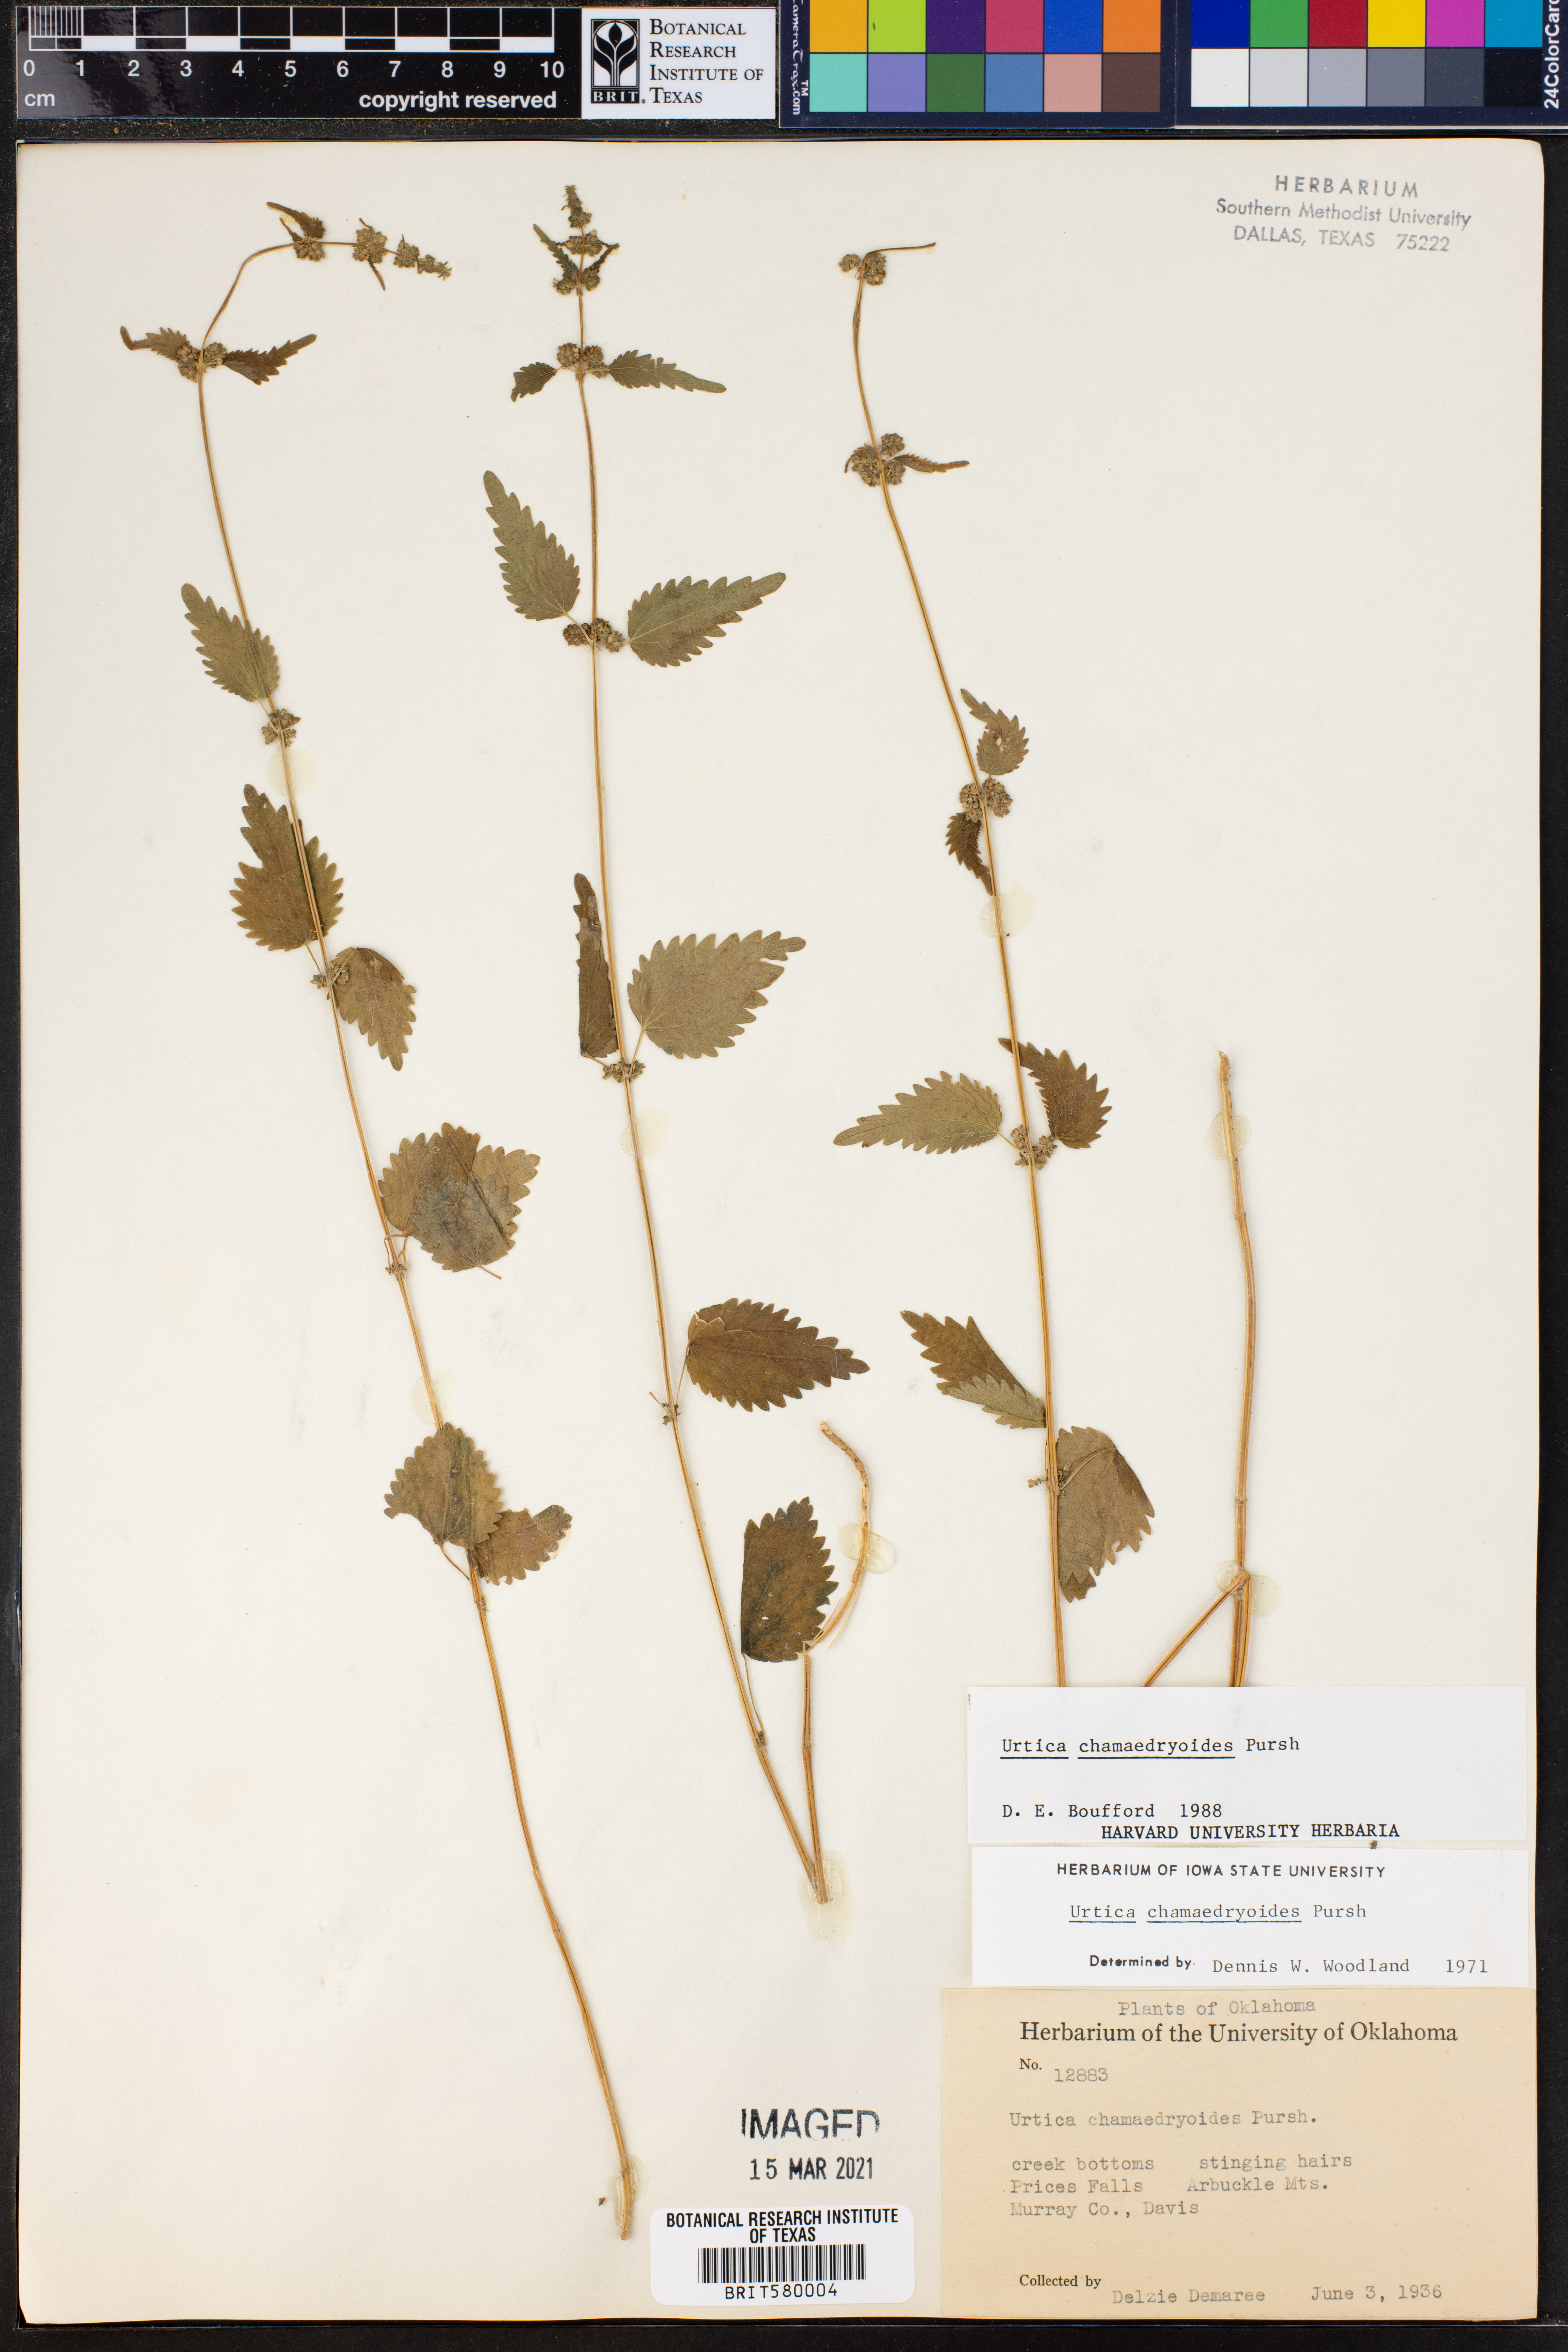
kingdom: Plantae
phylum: Tracheophyta
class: Magnoliopsida
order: Rosales
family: Urticaceae
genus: Urtica
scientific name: Urtica chamaedryoides
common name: Heart-leaf nettle
